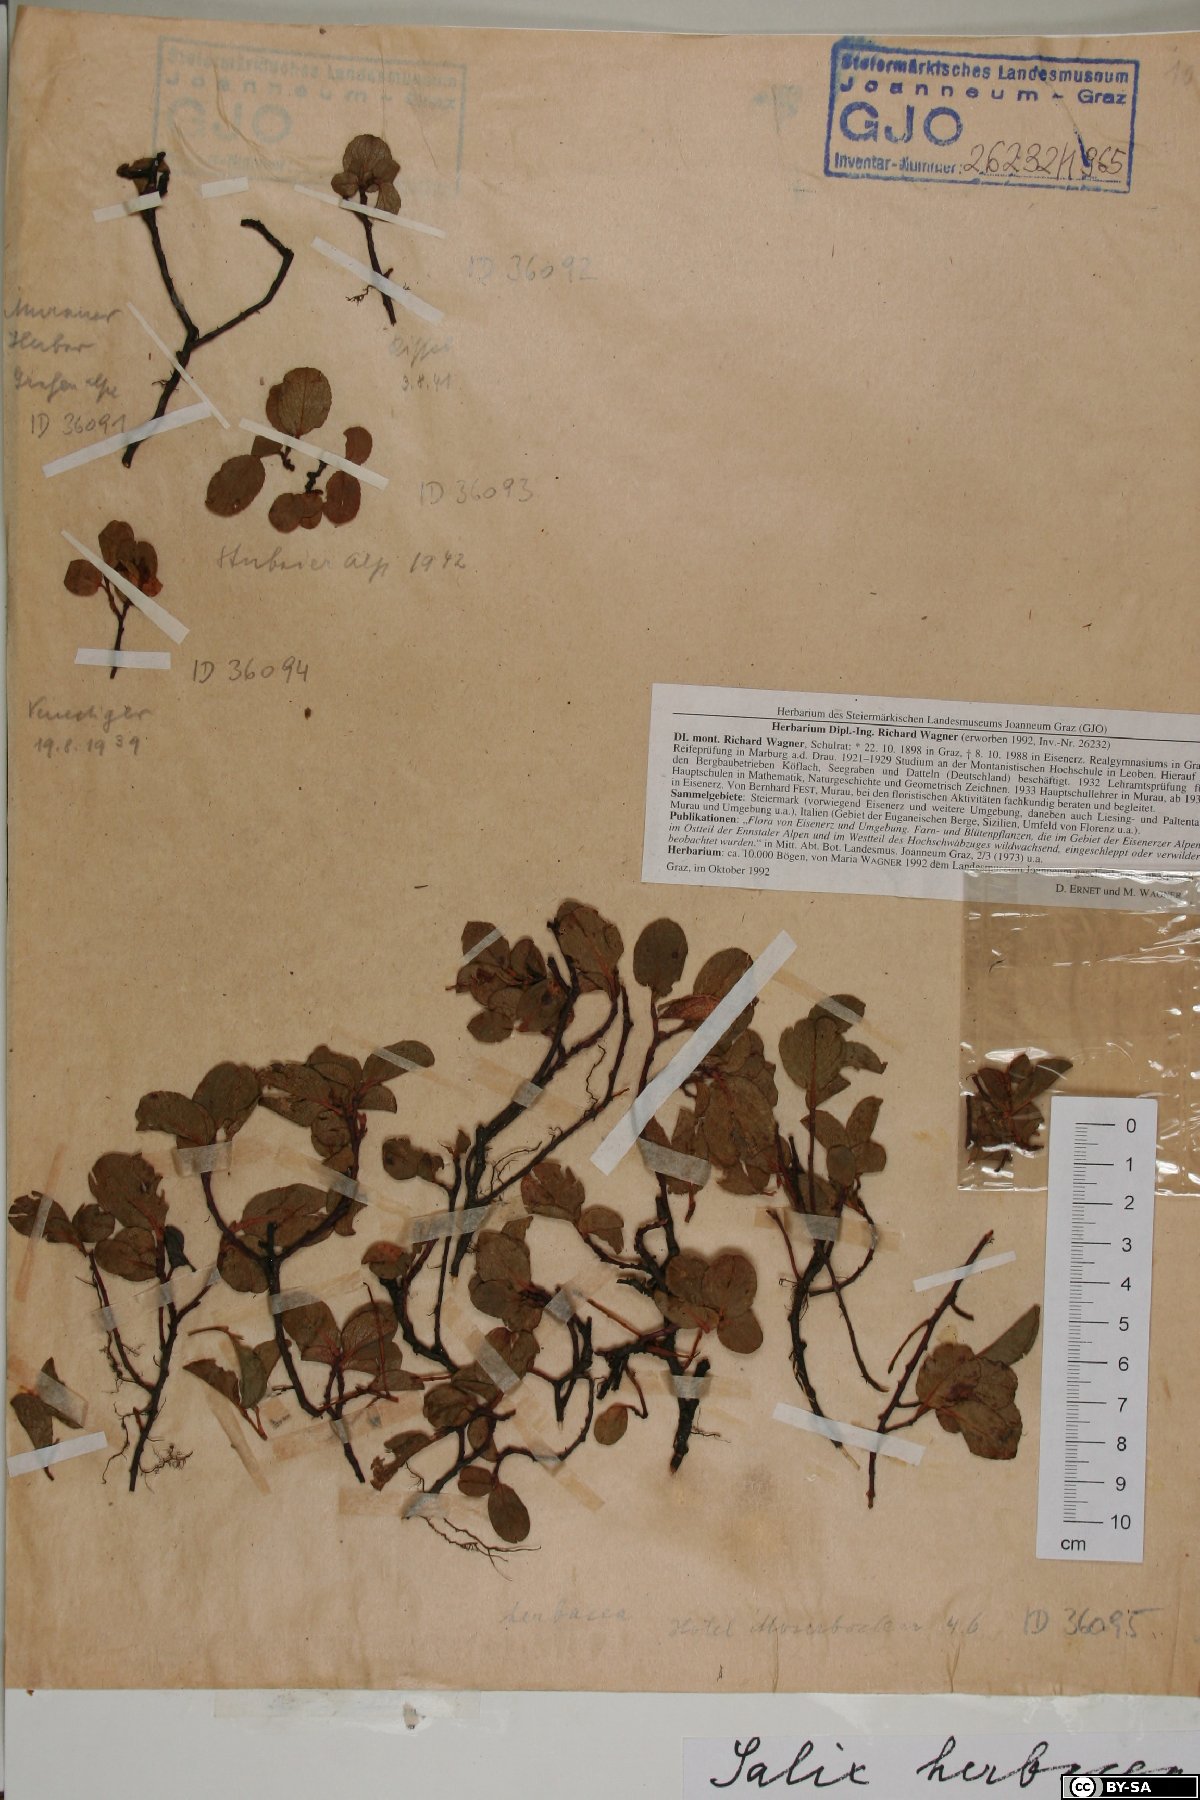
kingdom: Plantae
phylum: Tracheophyta
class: Magnoliopsida
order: Malpighiales
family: Salicaceae
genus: Salix
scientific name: Salix herbacea
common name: Dwarf willow
